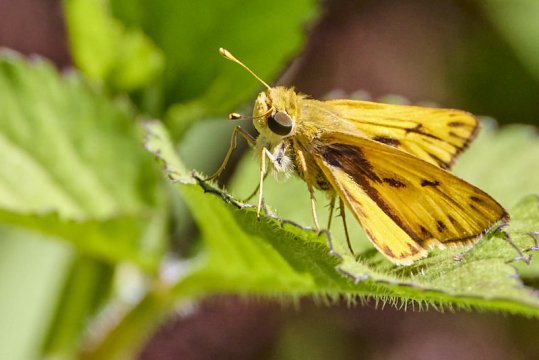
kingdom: Animalia
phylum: Arthropoda
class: Insecta
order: Lepidoptera
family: Hesperiidae
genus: Hylephila
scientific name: Hylephila phyleus
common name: Fiery Skipper
